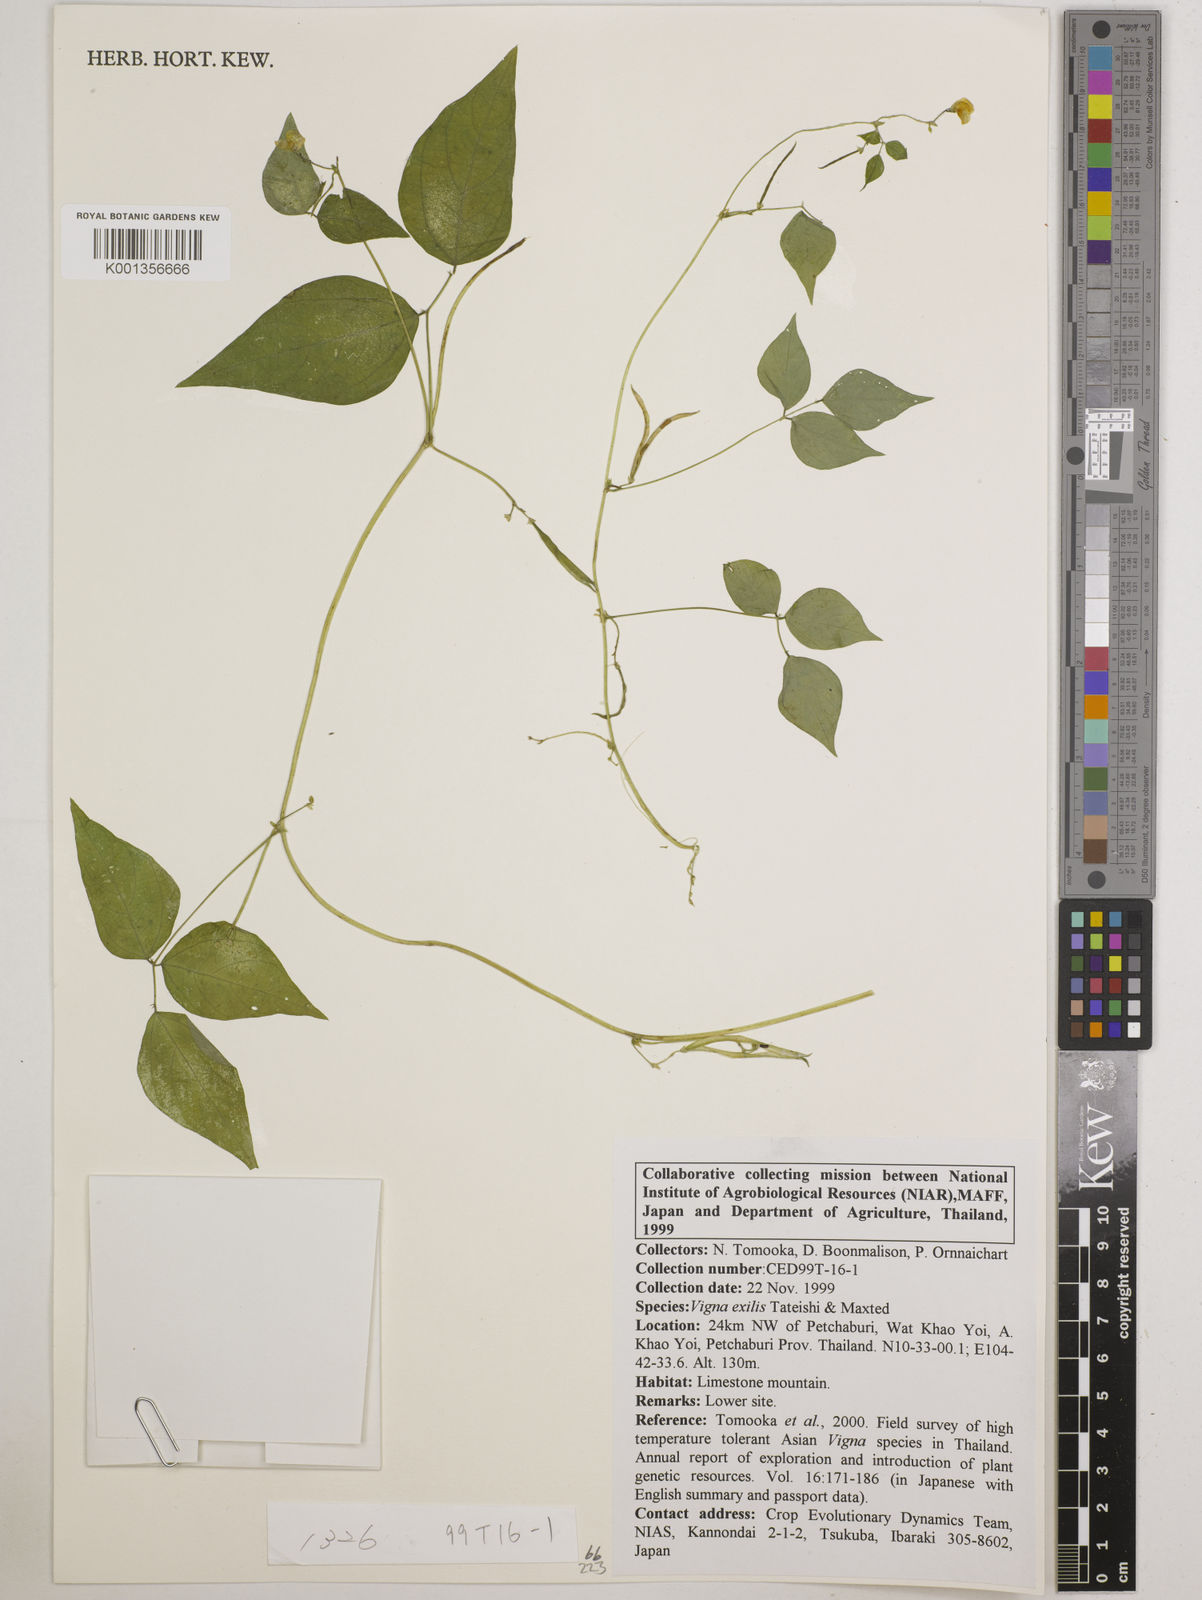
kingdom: Plantae
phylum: Tracheophyta
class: Magnoliopsida
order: Fabales
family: Fabaceae
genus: Vigna
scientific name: Vigna
